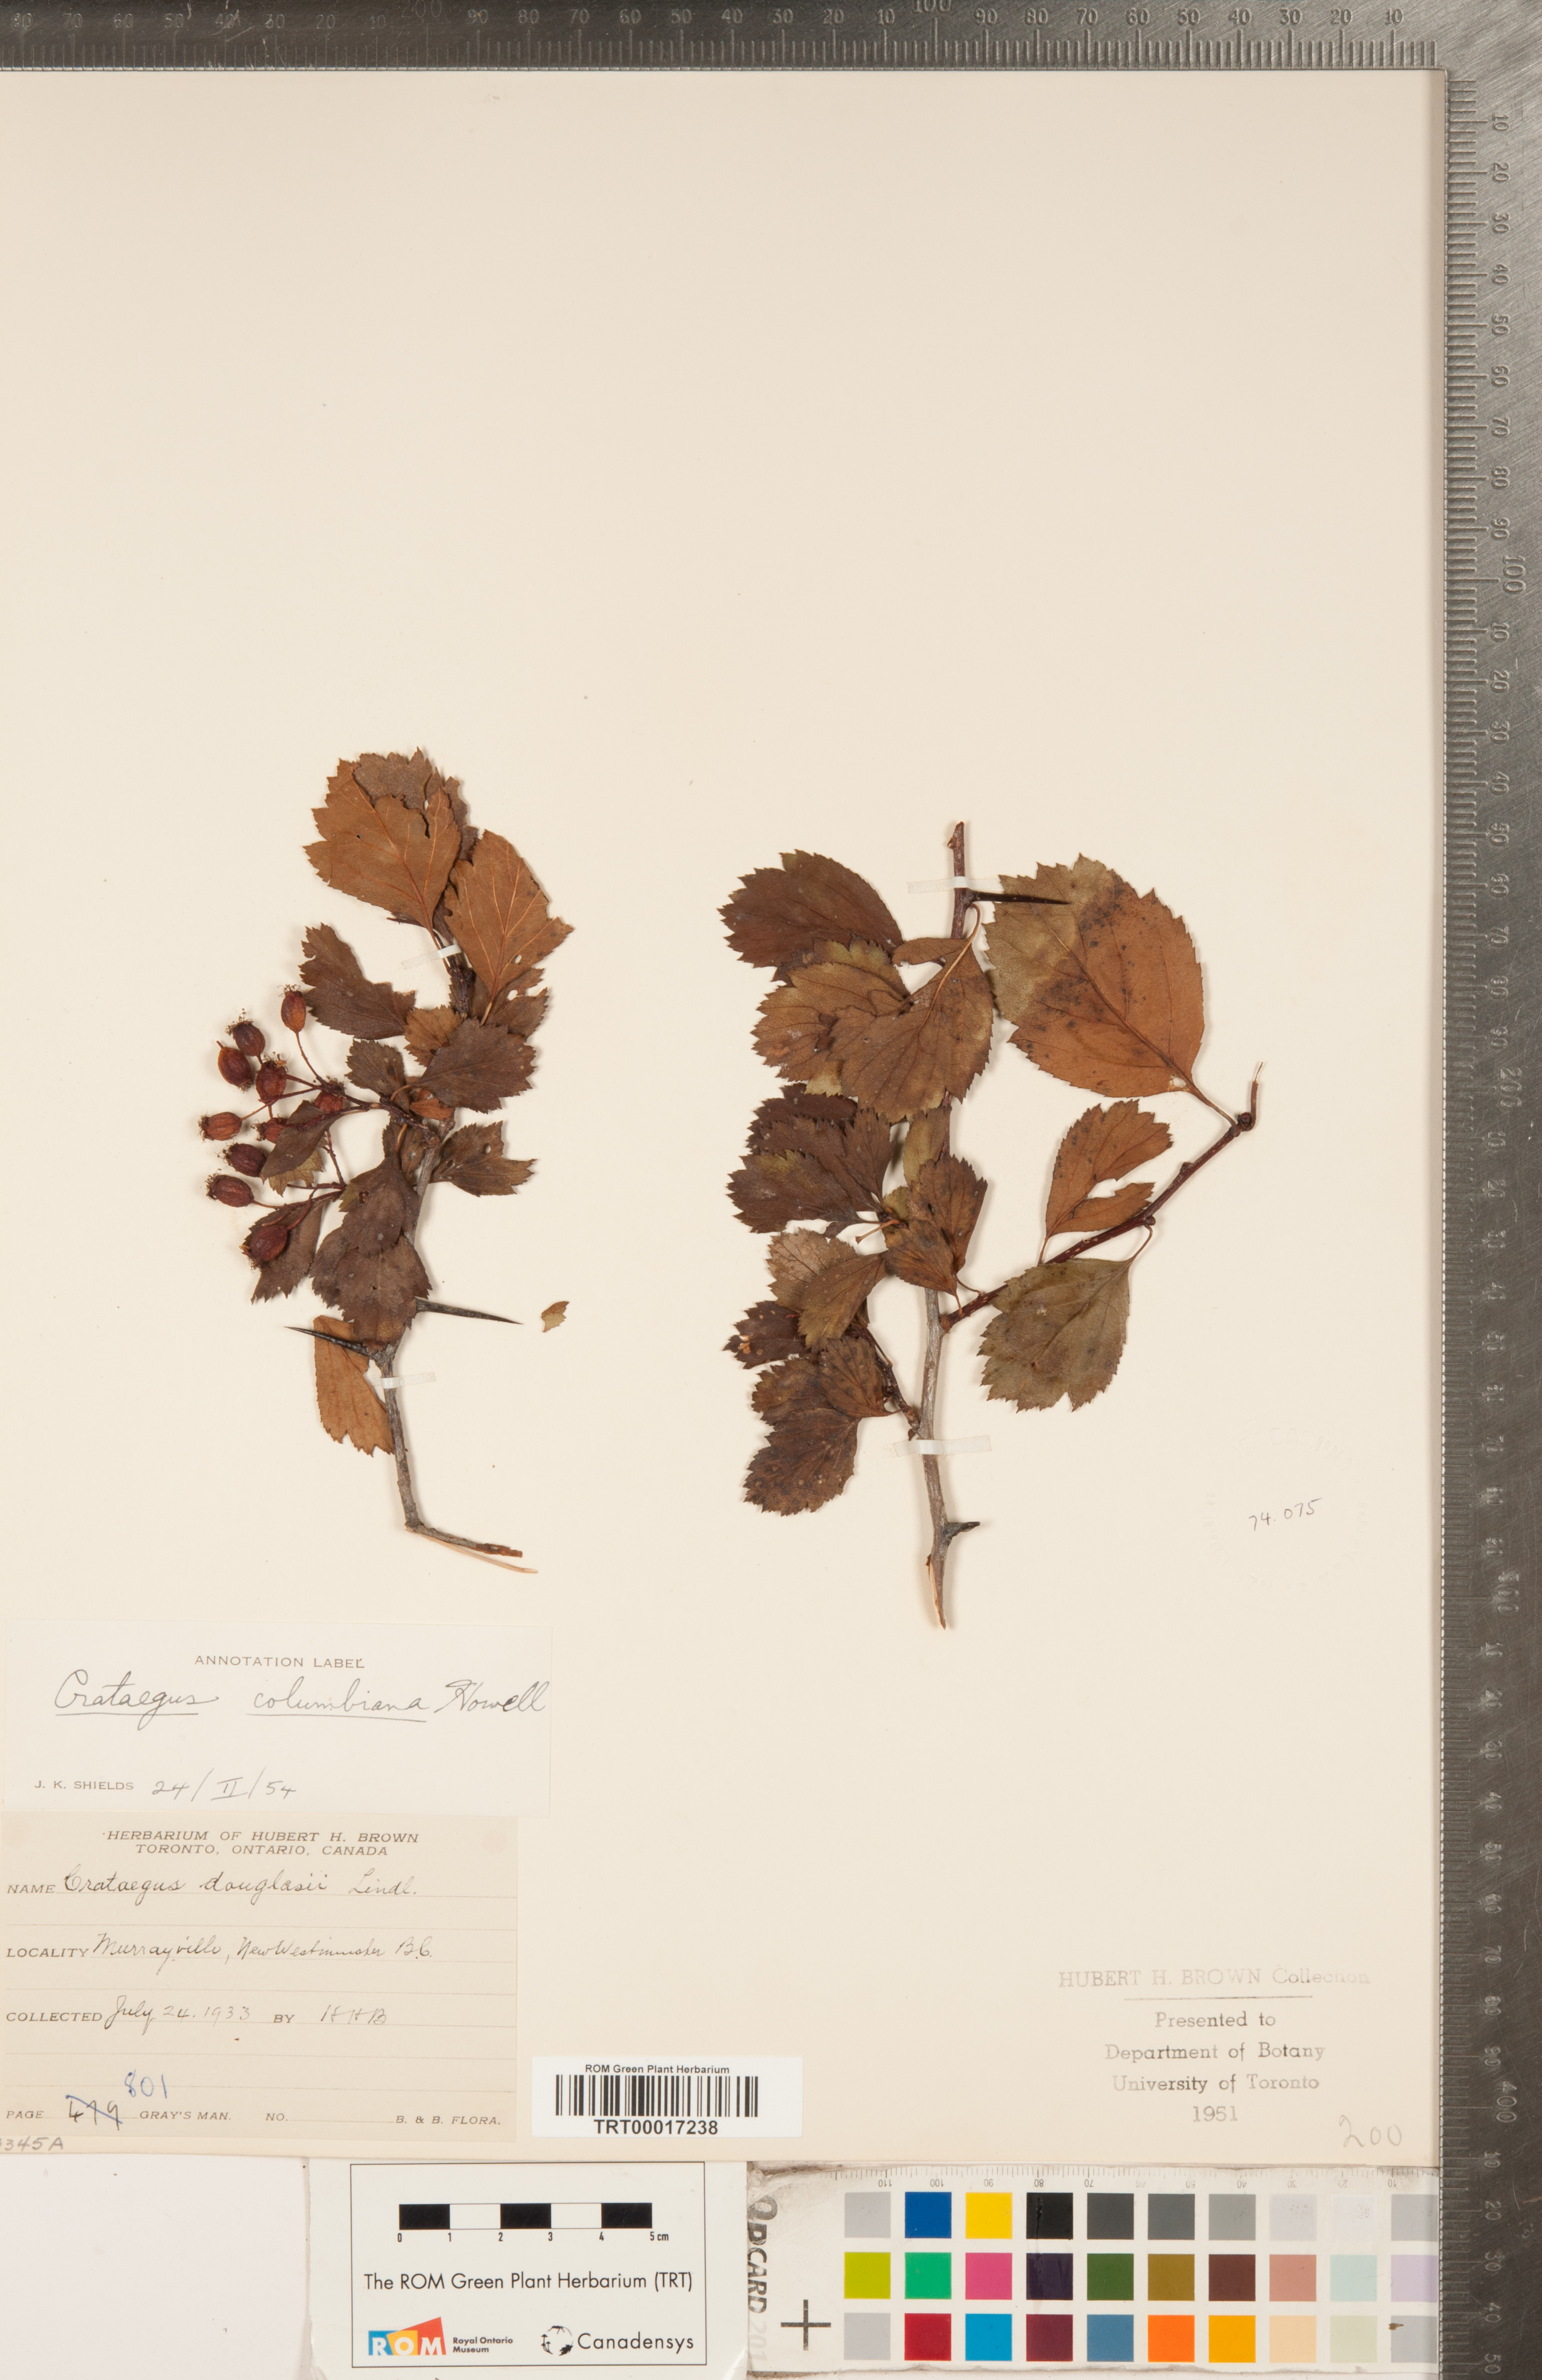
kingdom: Plantae
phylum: Tracheophyta
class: Magnoliopsida
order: Rosales
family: Rosaceae
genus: Crataegus
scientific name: Crataegus douglasii
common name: Black hawthorn
